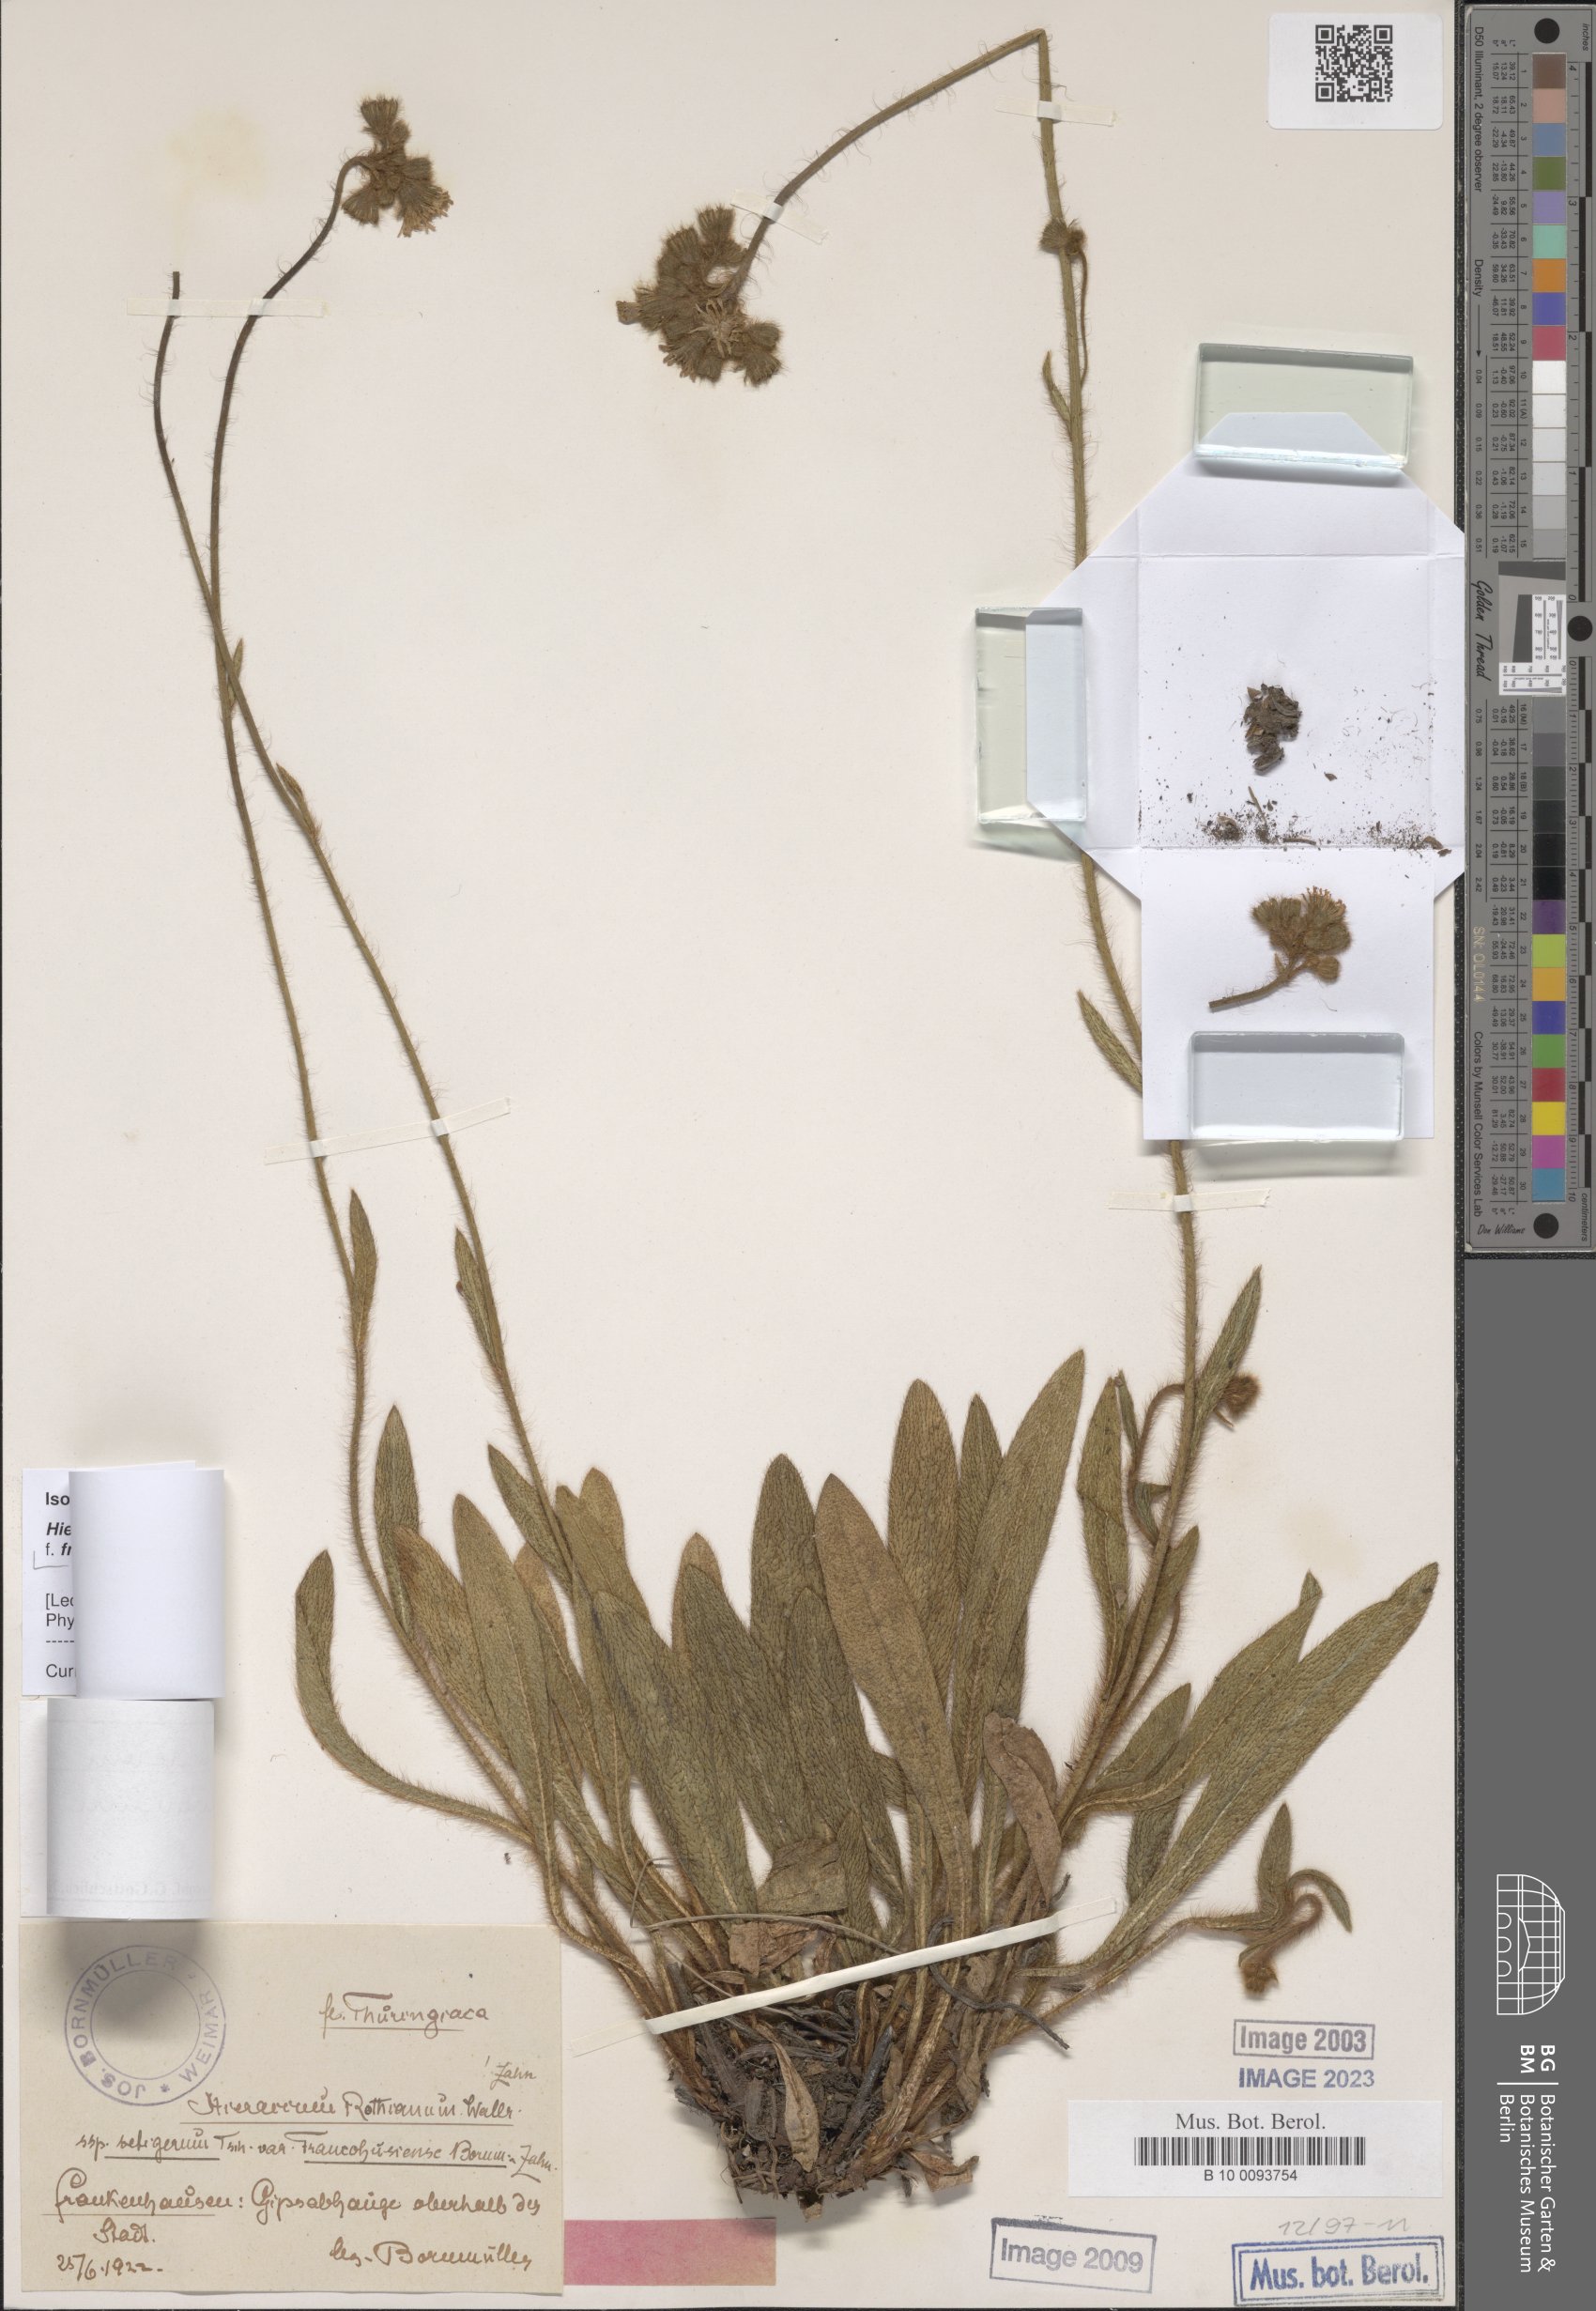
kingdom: Plantae
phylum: Tracheophyta
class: Magnoliopsida
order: Asterales
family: Asteraceae
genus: Hieracium
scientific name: Hieracium rothianum
